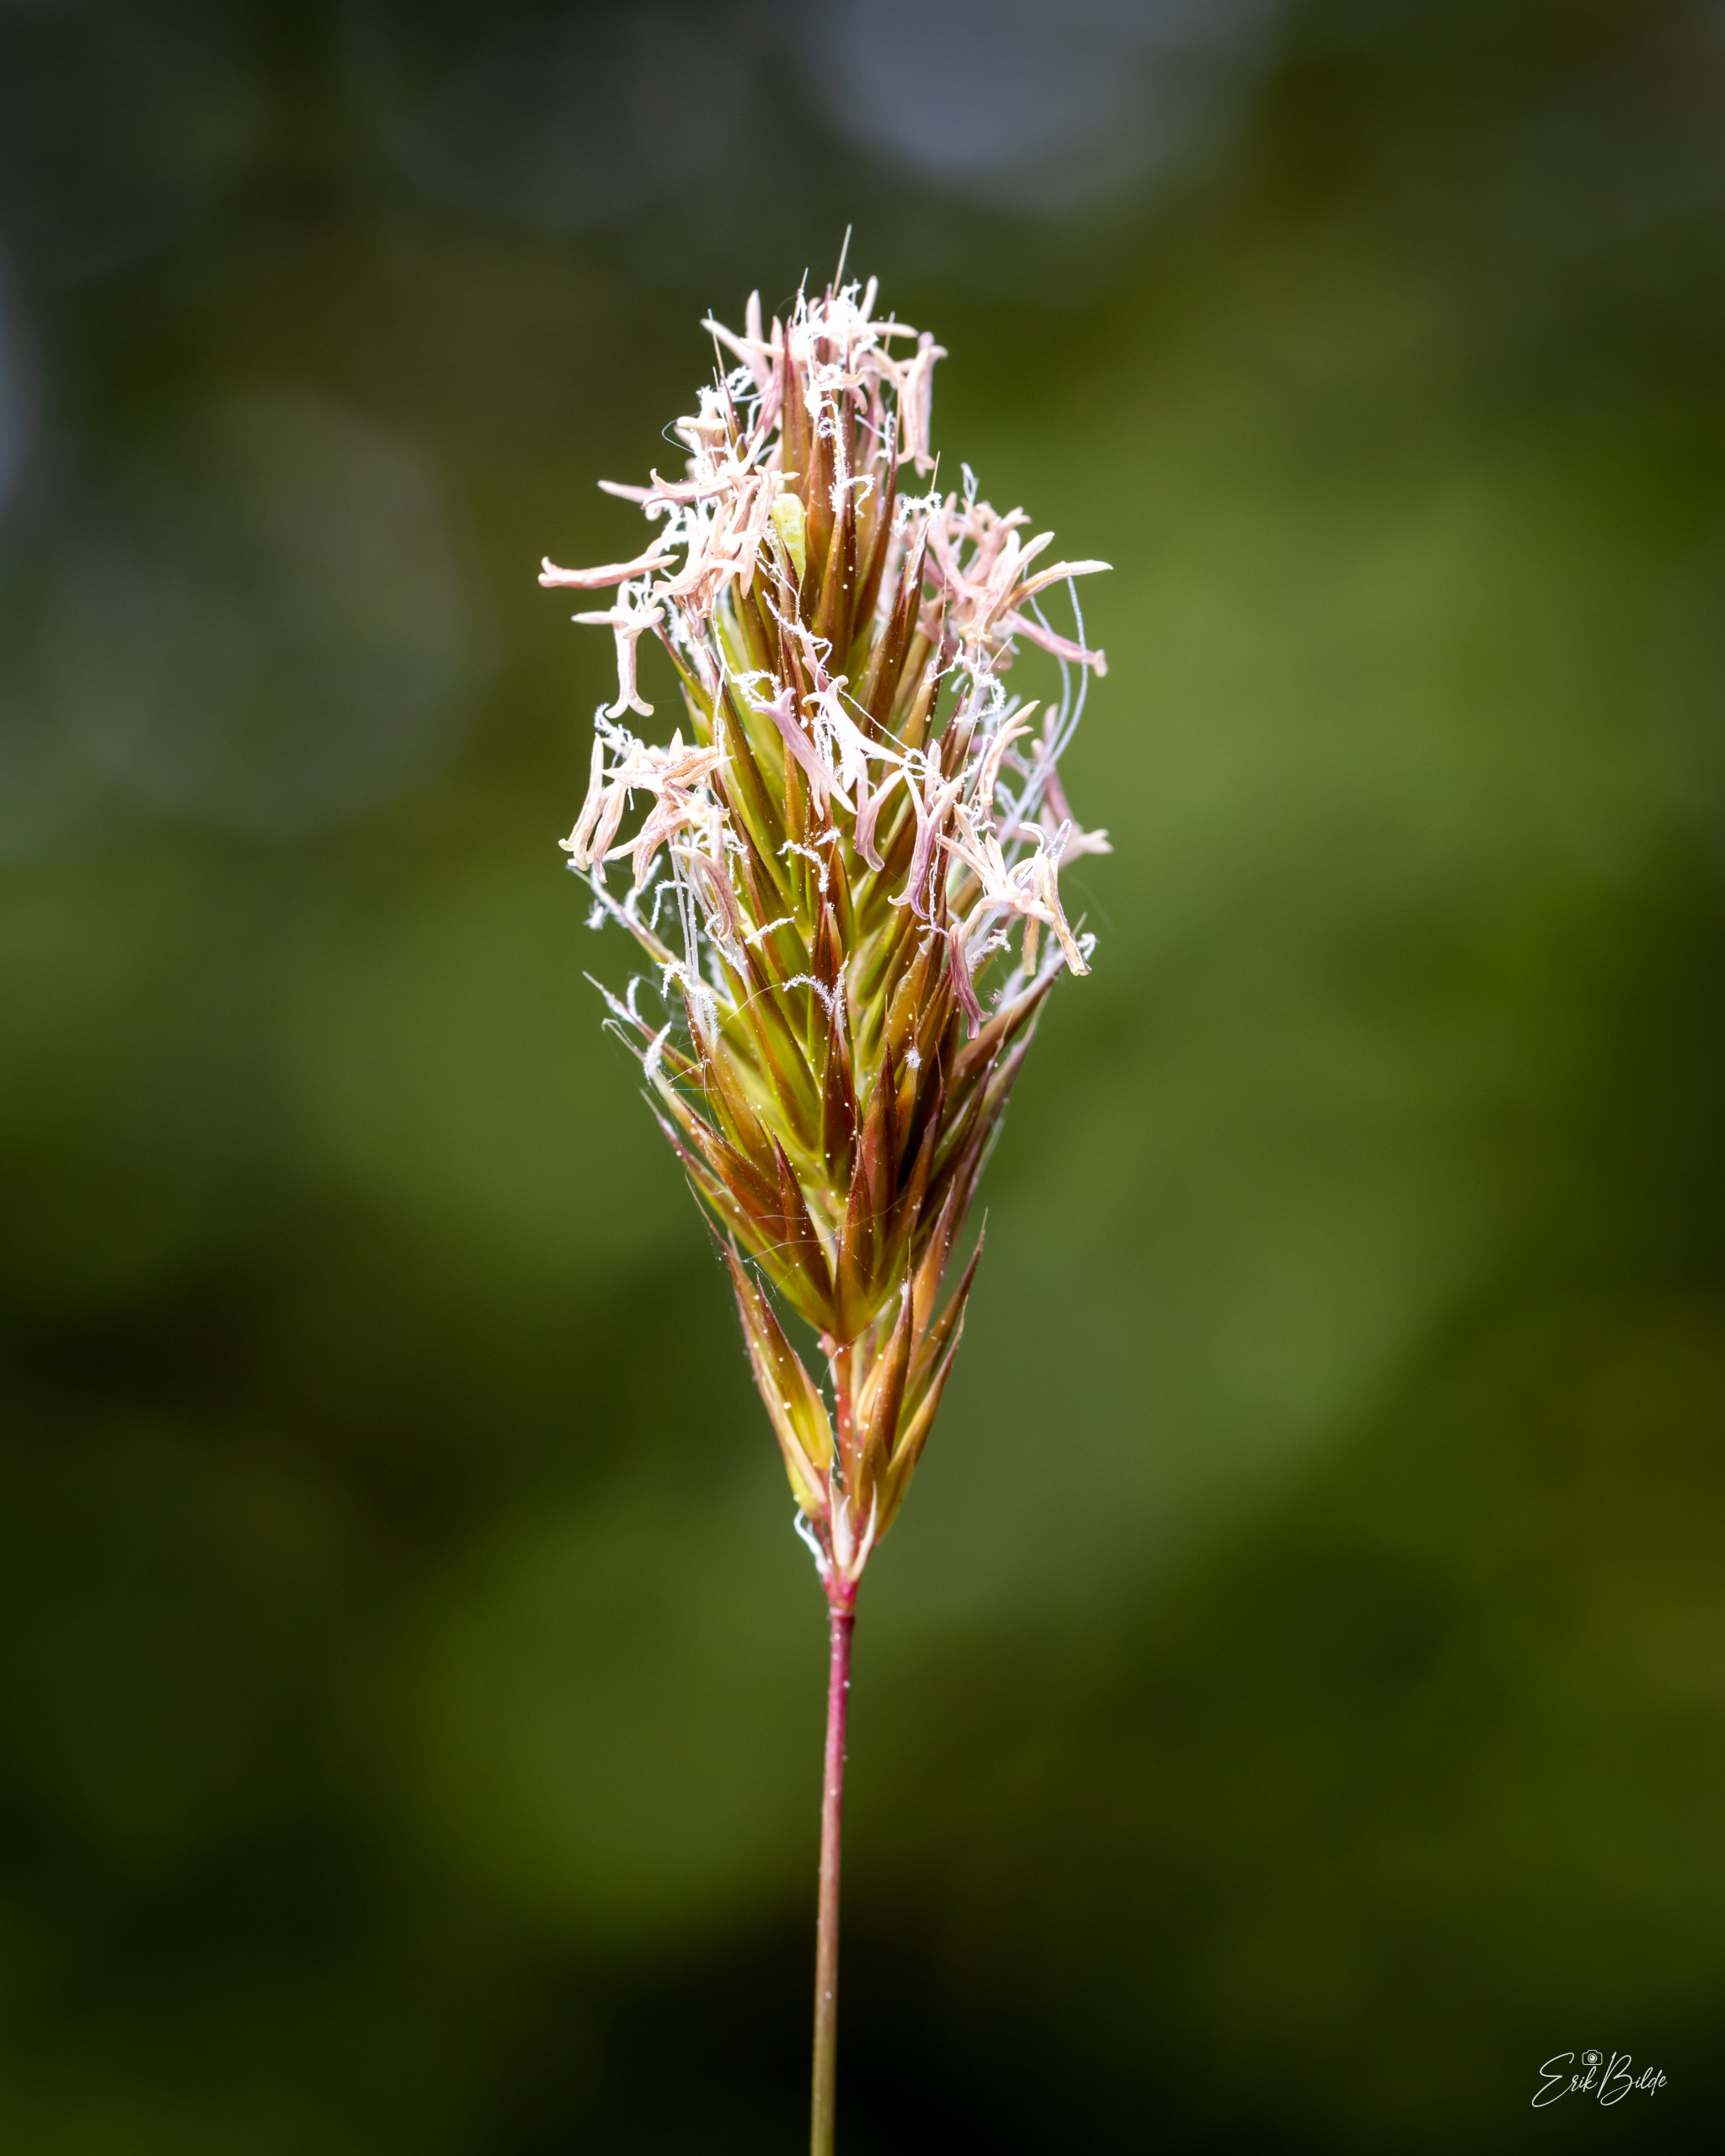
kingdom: Plantae
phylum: Tracheophyta
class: Liliopsida
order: Poales
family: Poaceae
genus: Anthoxanthum
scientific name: Anthoxanthum odoratum
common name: Vellugtende gulaks
